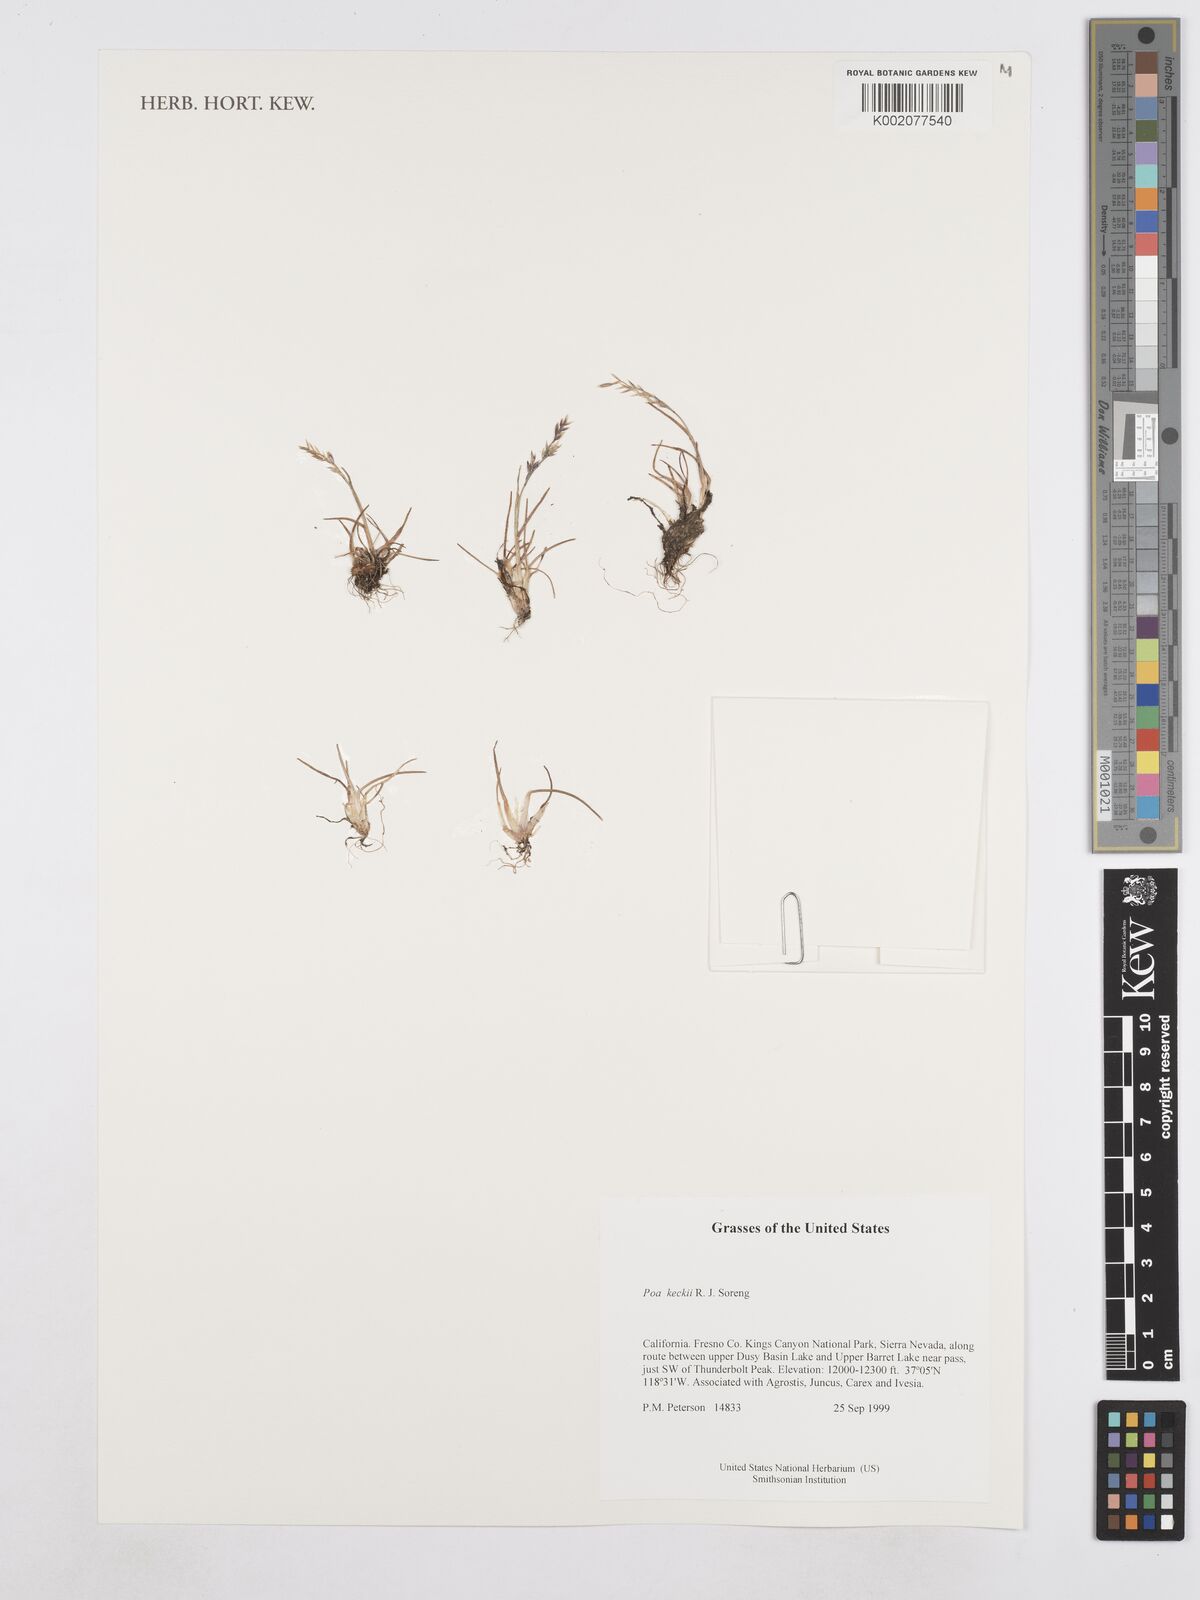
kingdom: Plantae
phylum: Tracheophyta
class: Liliopsida
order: Poales
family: Poaceae
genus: Poa
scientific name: Poa keckii
